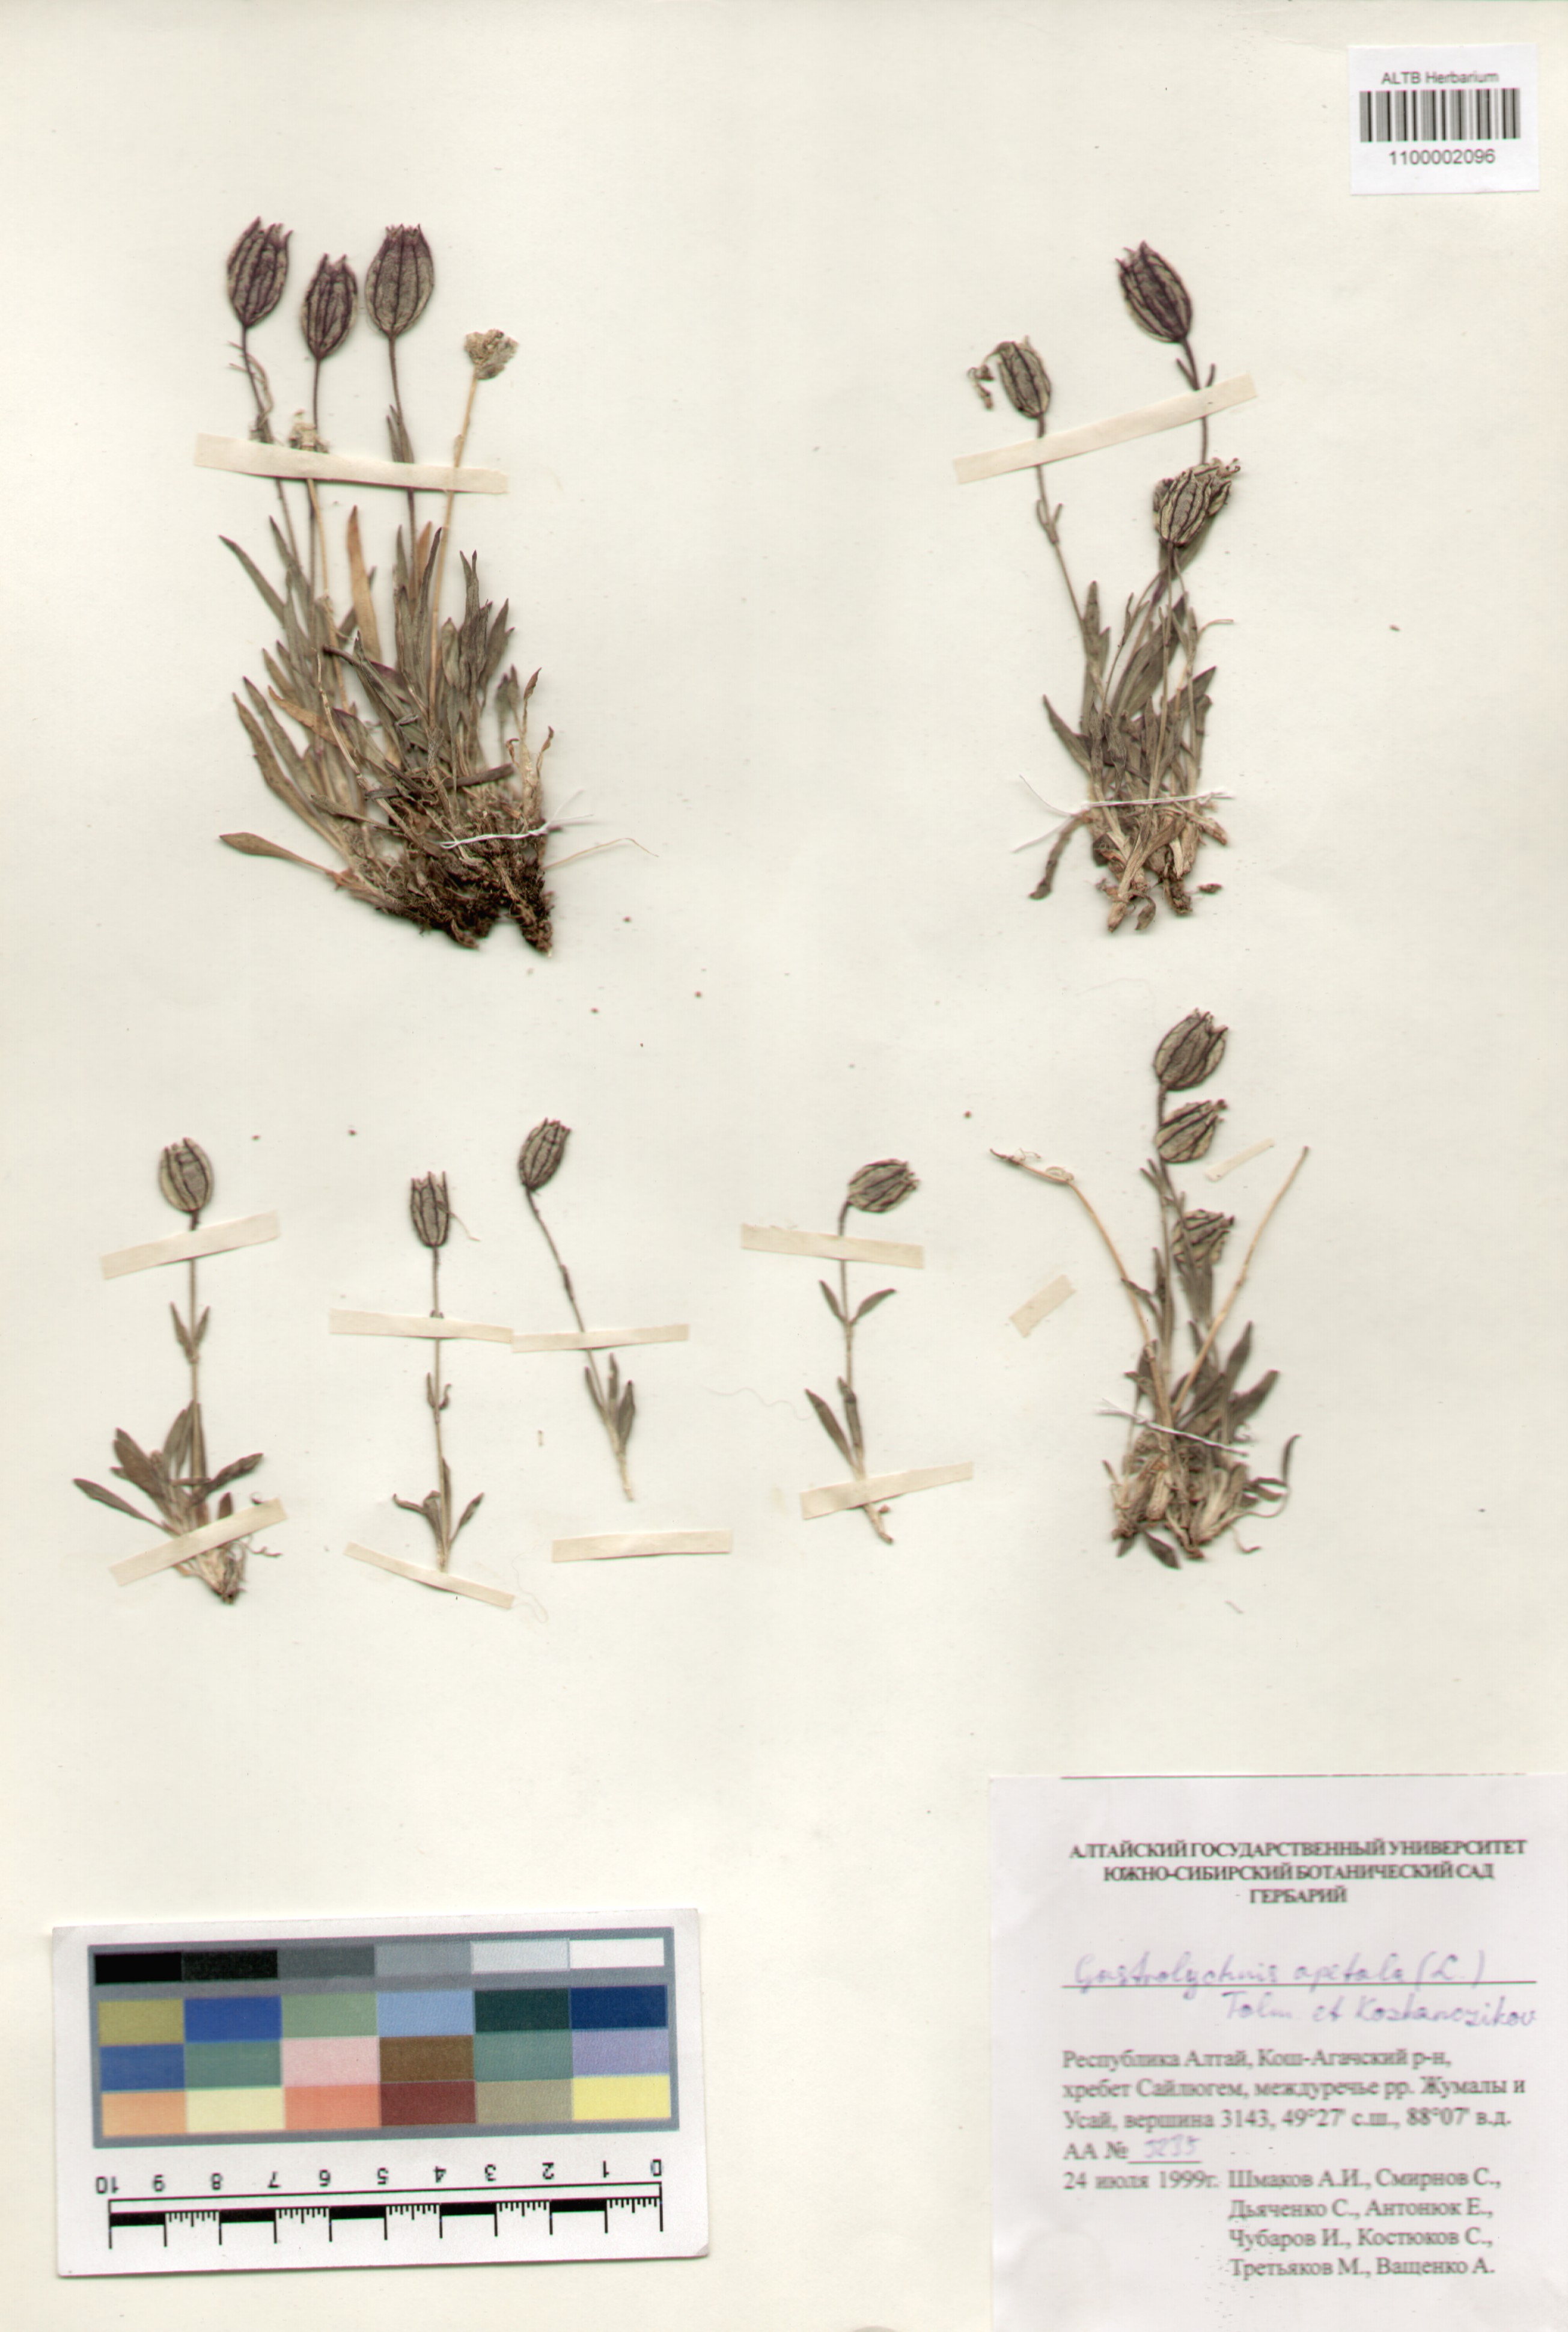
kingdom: Plantae
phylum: Tracheophyta
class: Magnoliopsida
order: Caryophyllales
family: Caryophyllaceae
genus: Silene
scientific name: Silene wahlbergella
